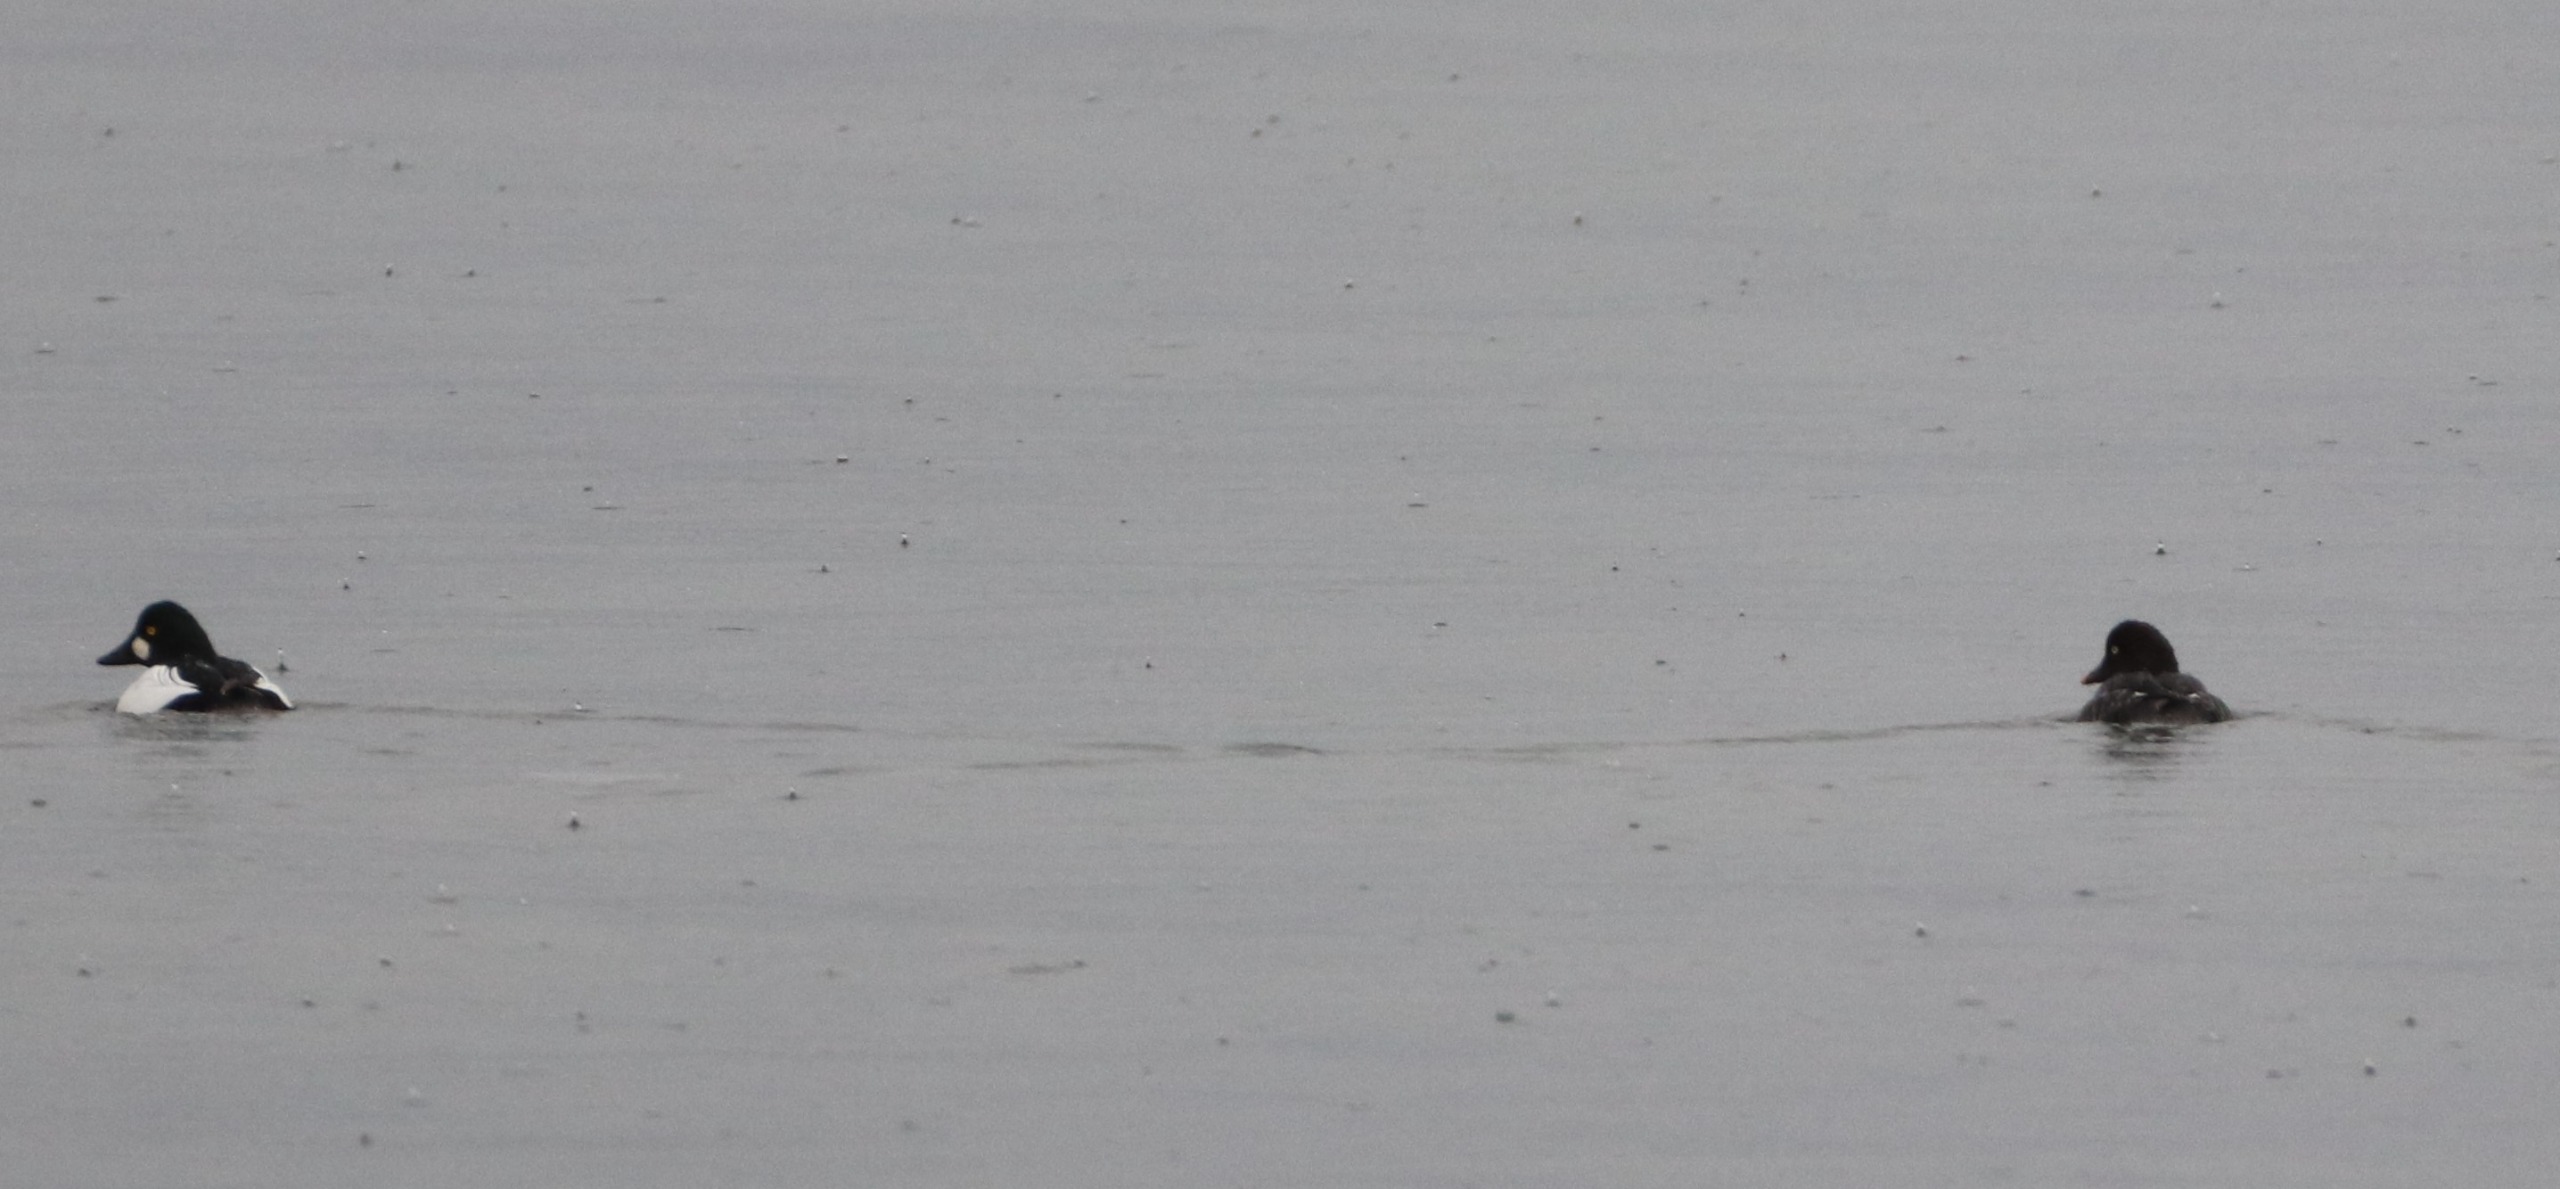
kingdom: Animalia
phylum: Chordata
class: Aves
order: Anseriformes
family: Anatidae
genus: Bucephala
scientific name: Bucephala clangula
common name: Hvinand
